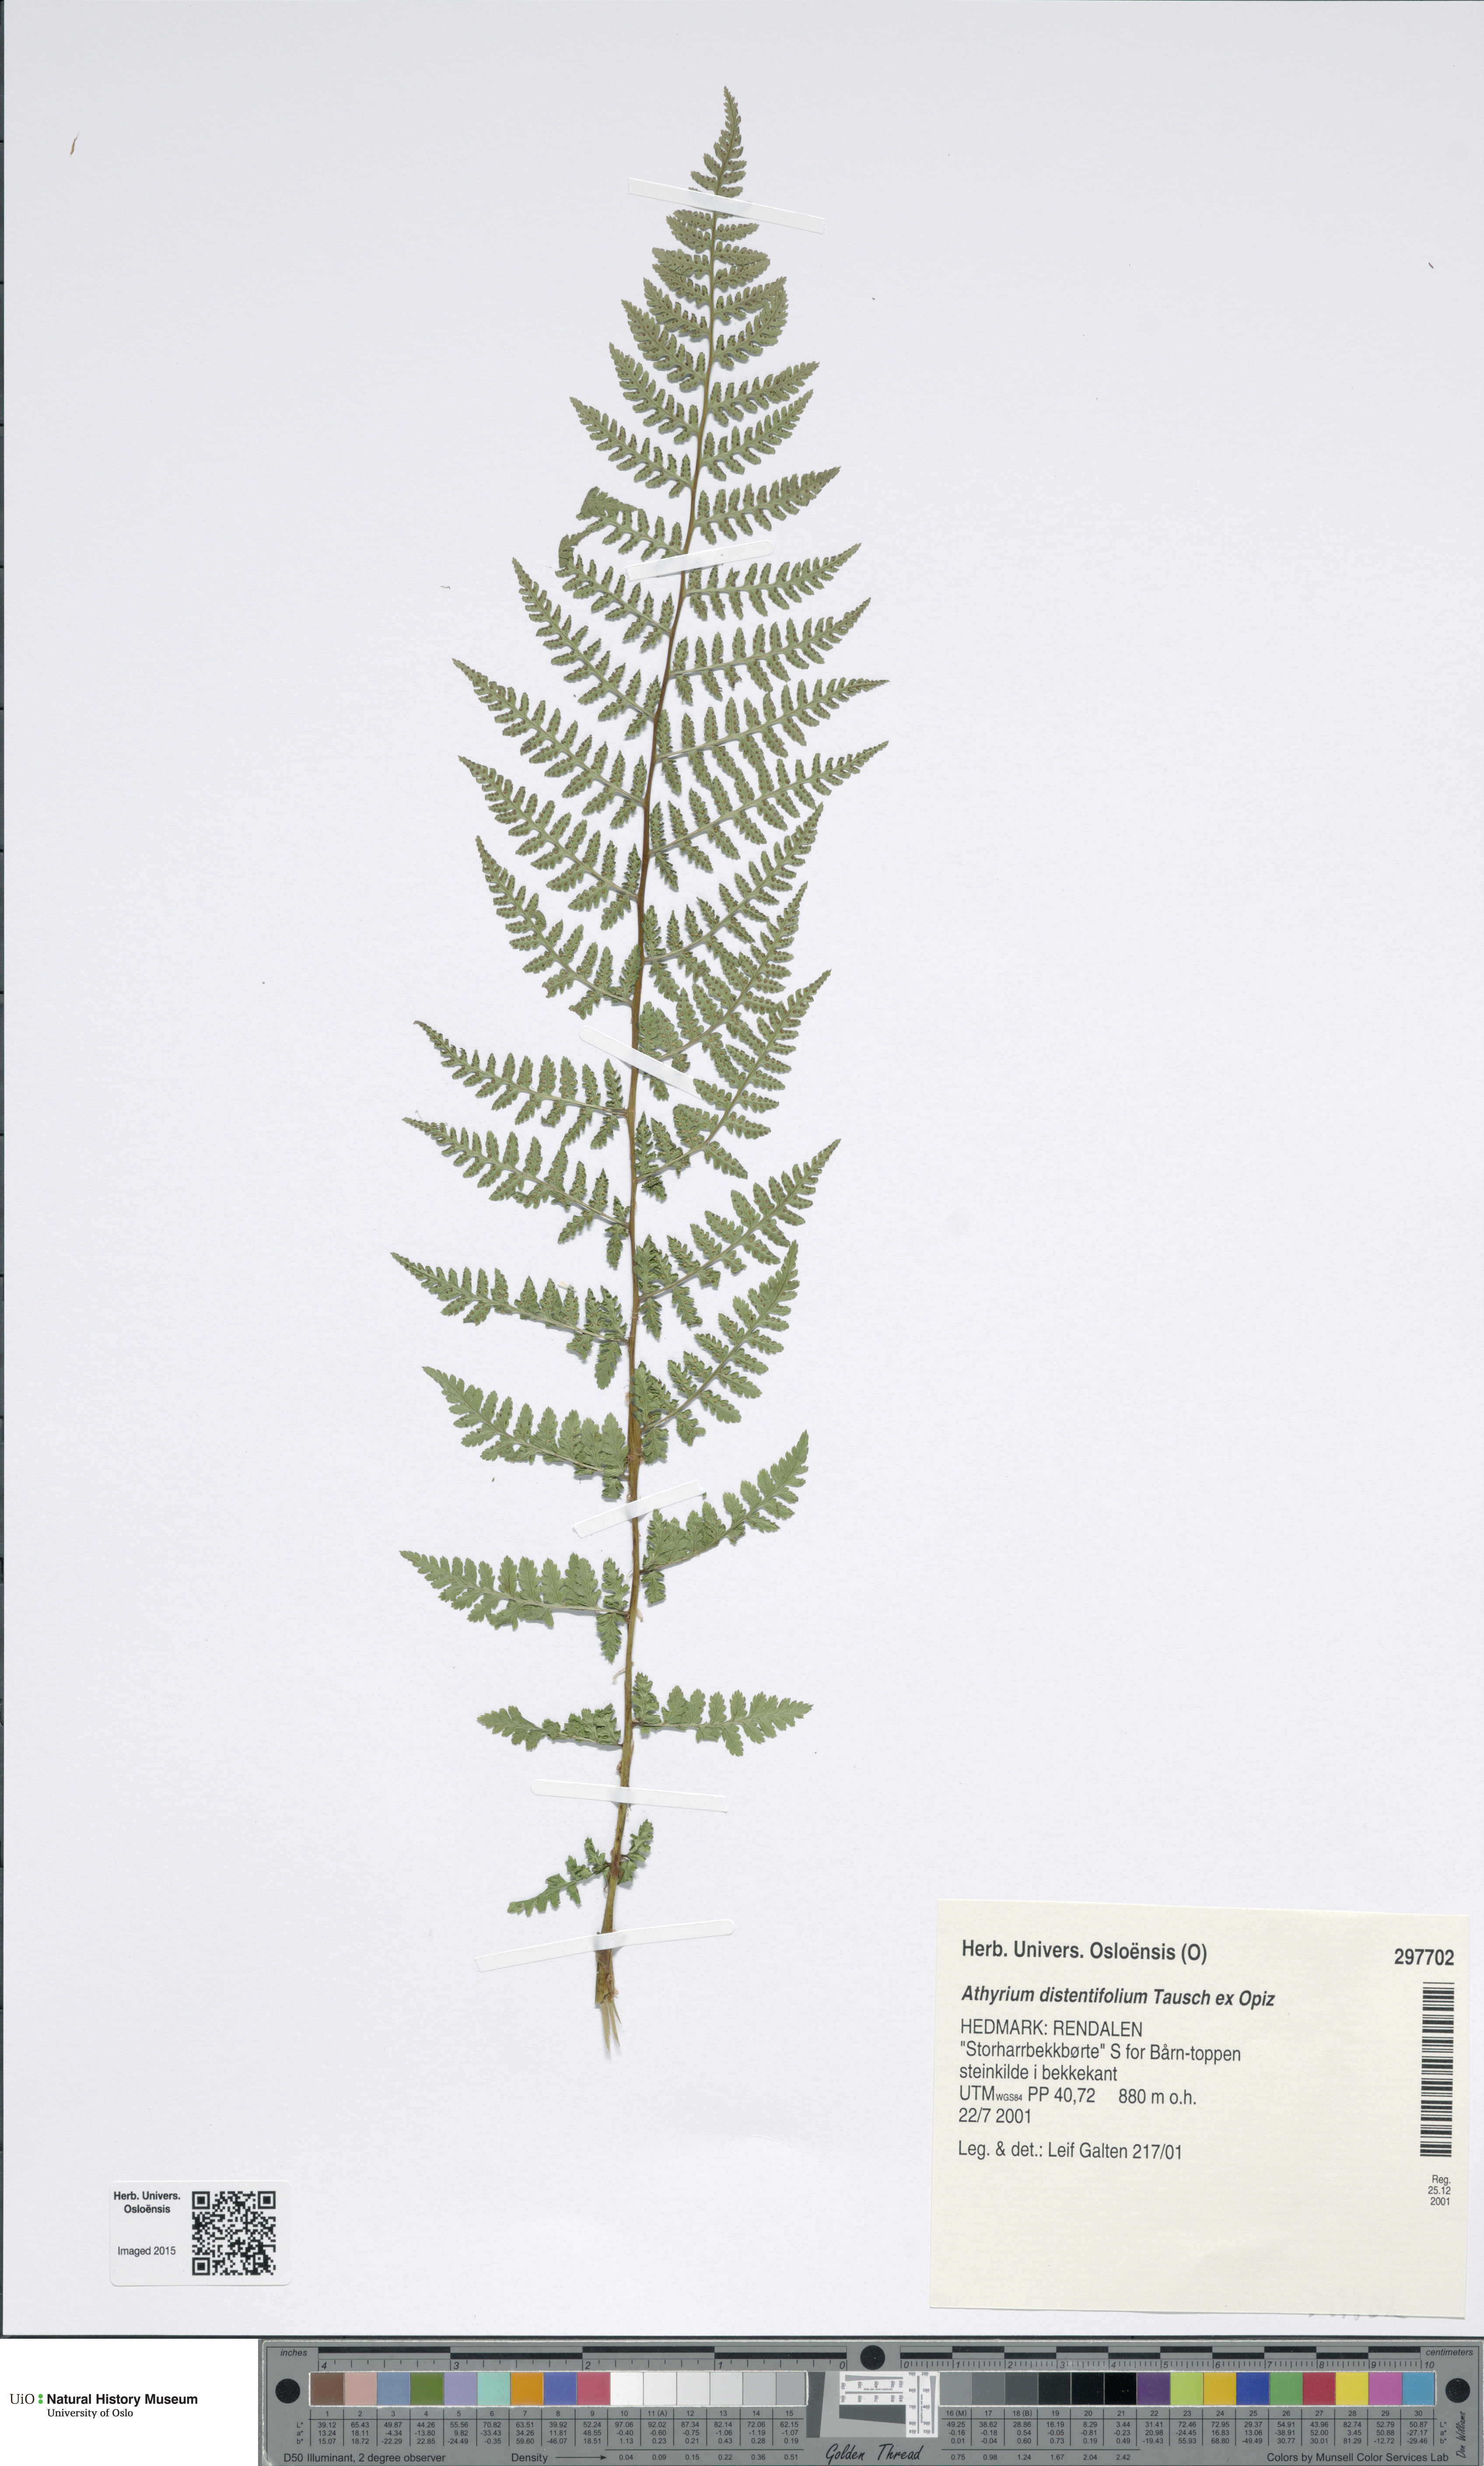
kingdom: Plantae
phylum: Tracheophyta
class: Polypodiopsida
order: Polypodiales
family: Athyriaceae
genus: Pseudathyrium
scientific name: Pseudathyrium alpestre
